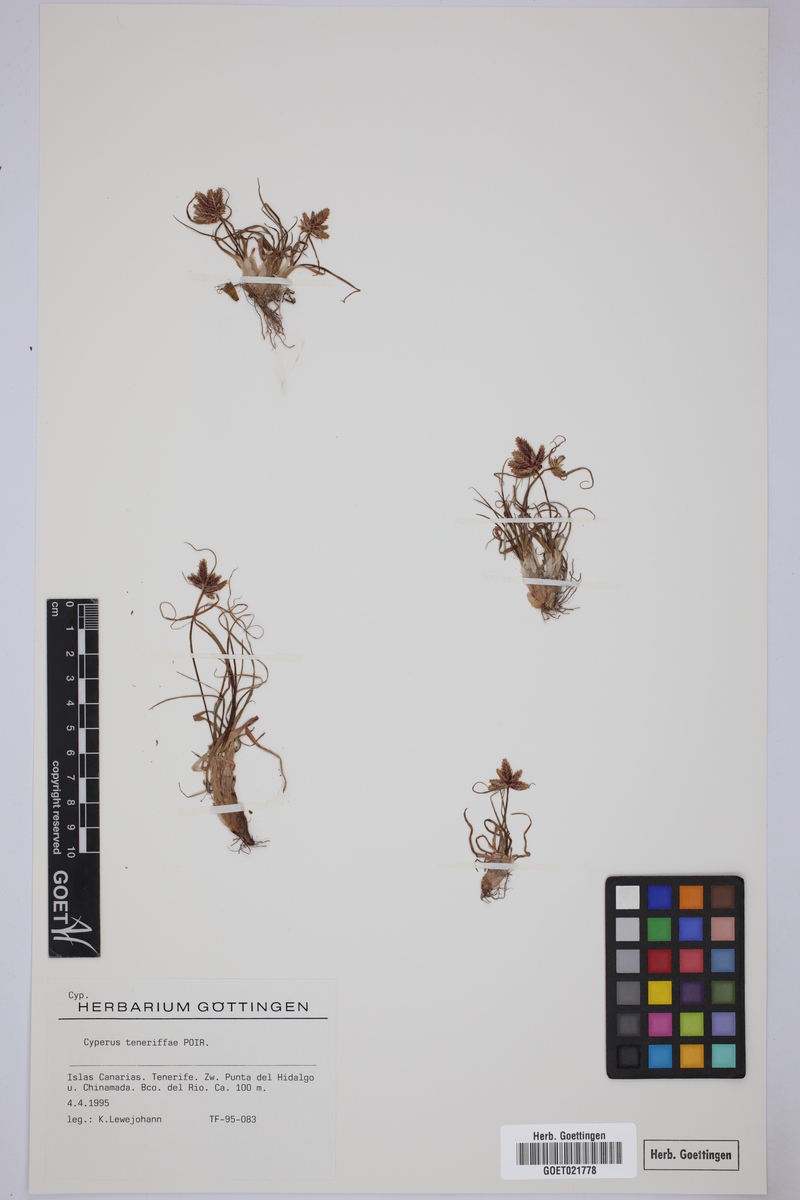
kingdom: Plantae
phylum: Tracheophyta
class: Liliopsida
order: Poales
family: Cyperaceae
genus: Cyperus
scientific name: Cyperus rubicundus
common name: Coco-grass
